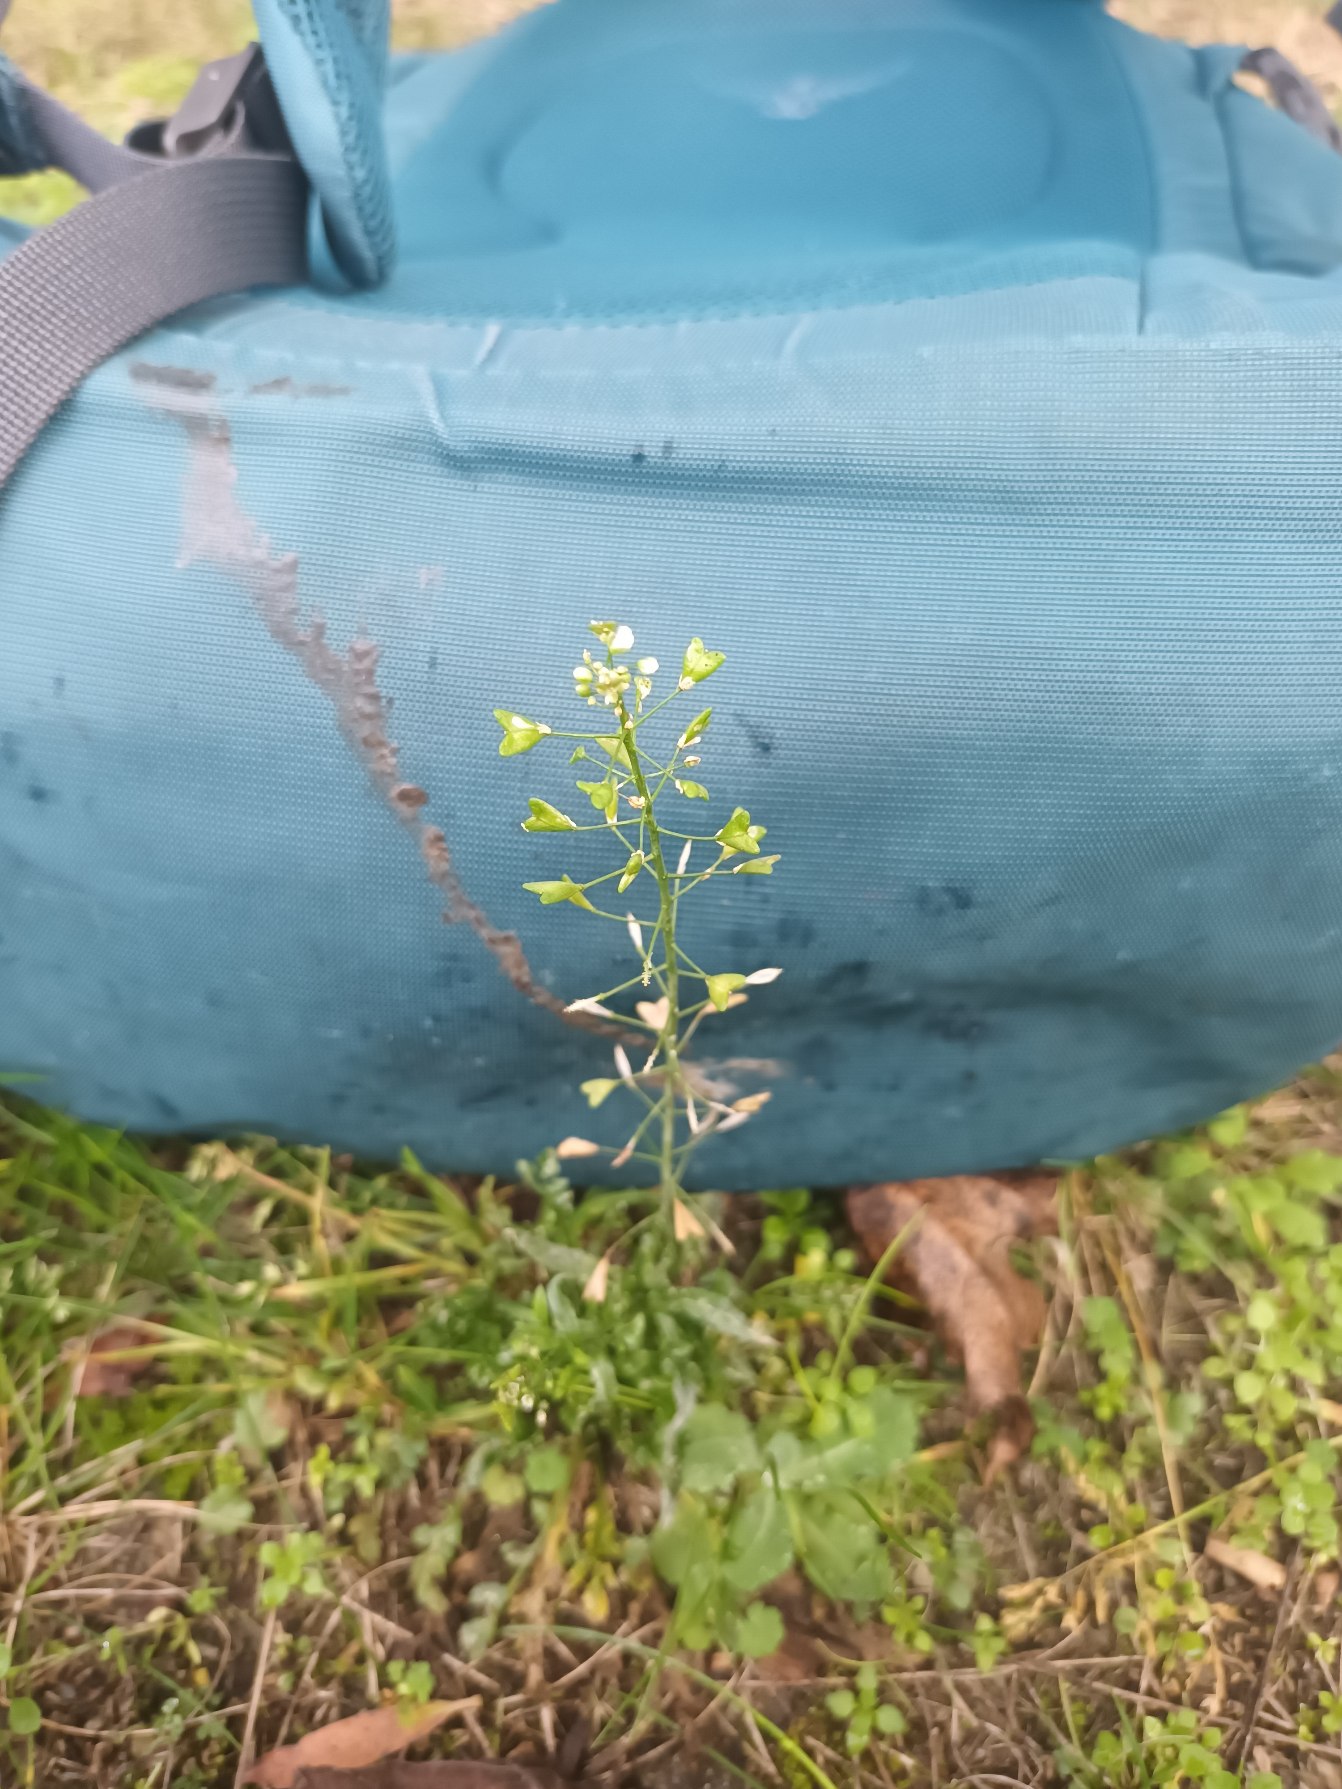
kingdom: Plantae
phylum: Tracheophyta
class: Magnoliopsida
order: Brassicales
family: Brassicaceae
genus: Capsella
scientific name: Capsella bursa-pastoris
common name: Hyrdetaske
